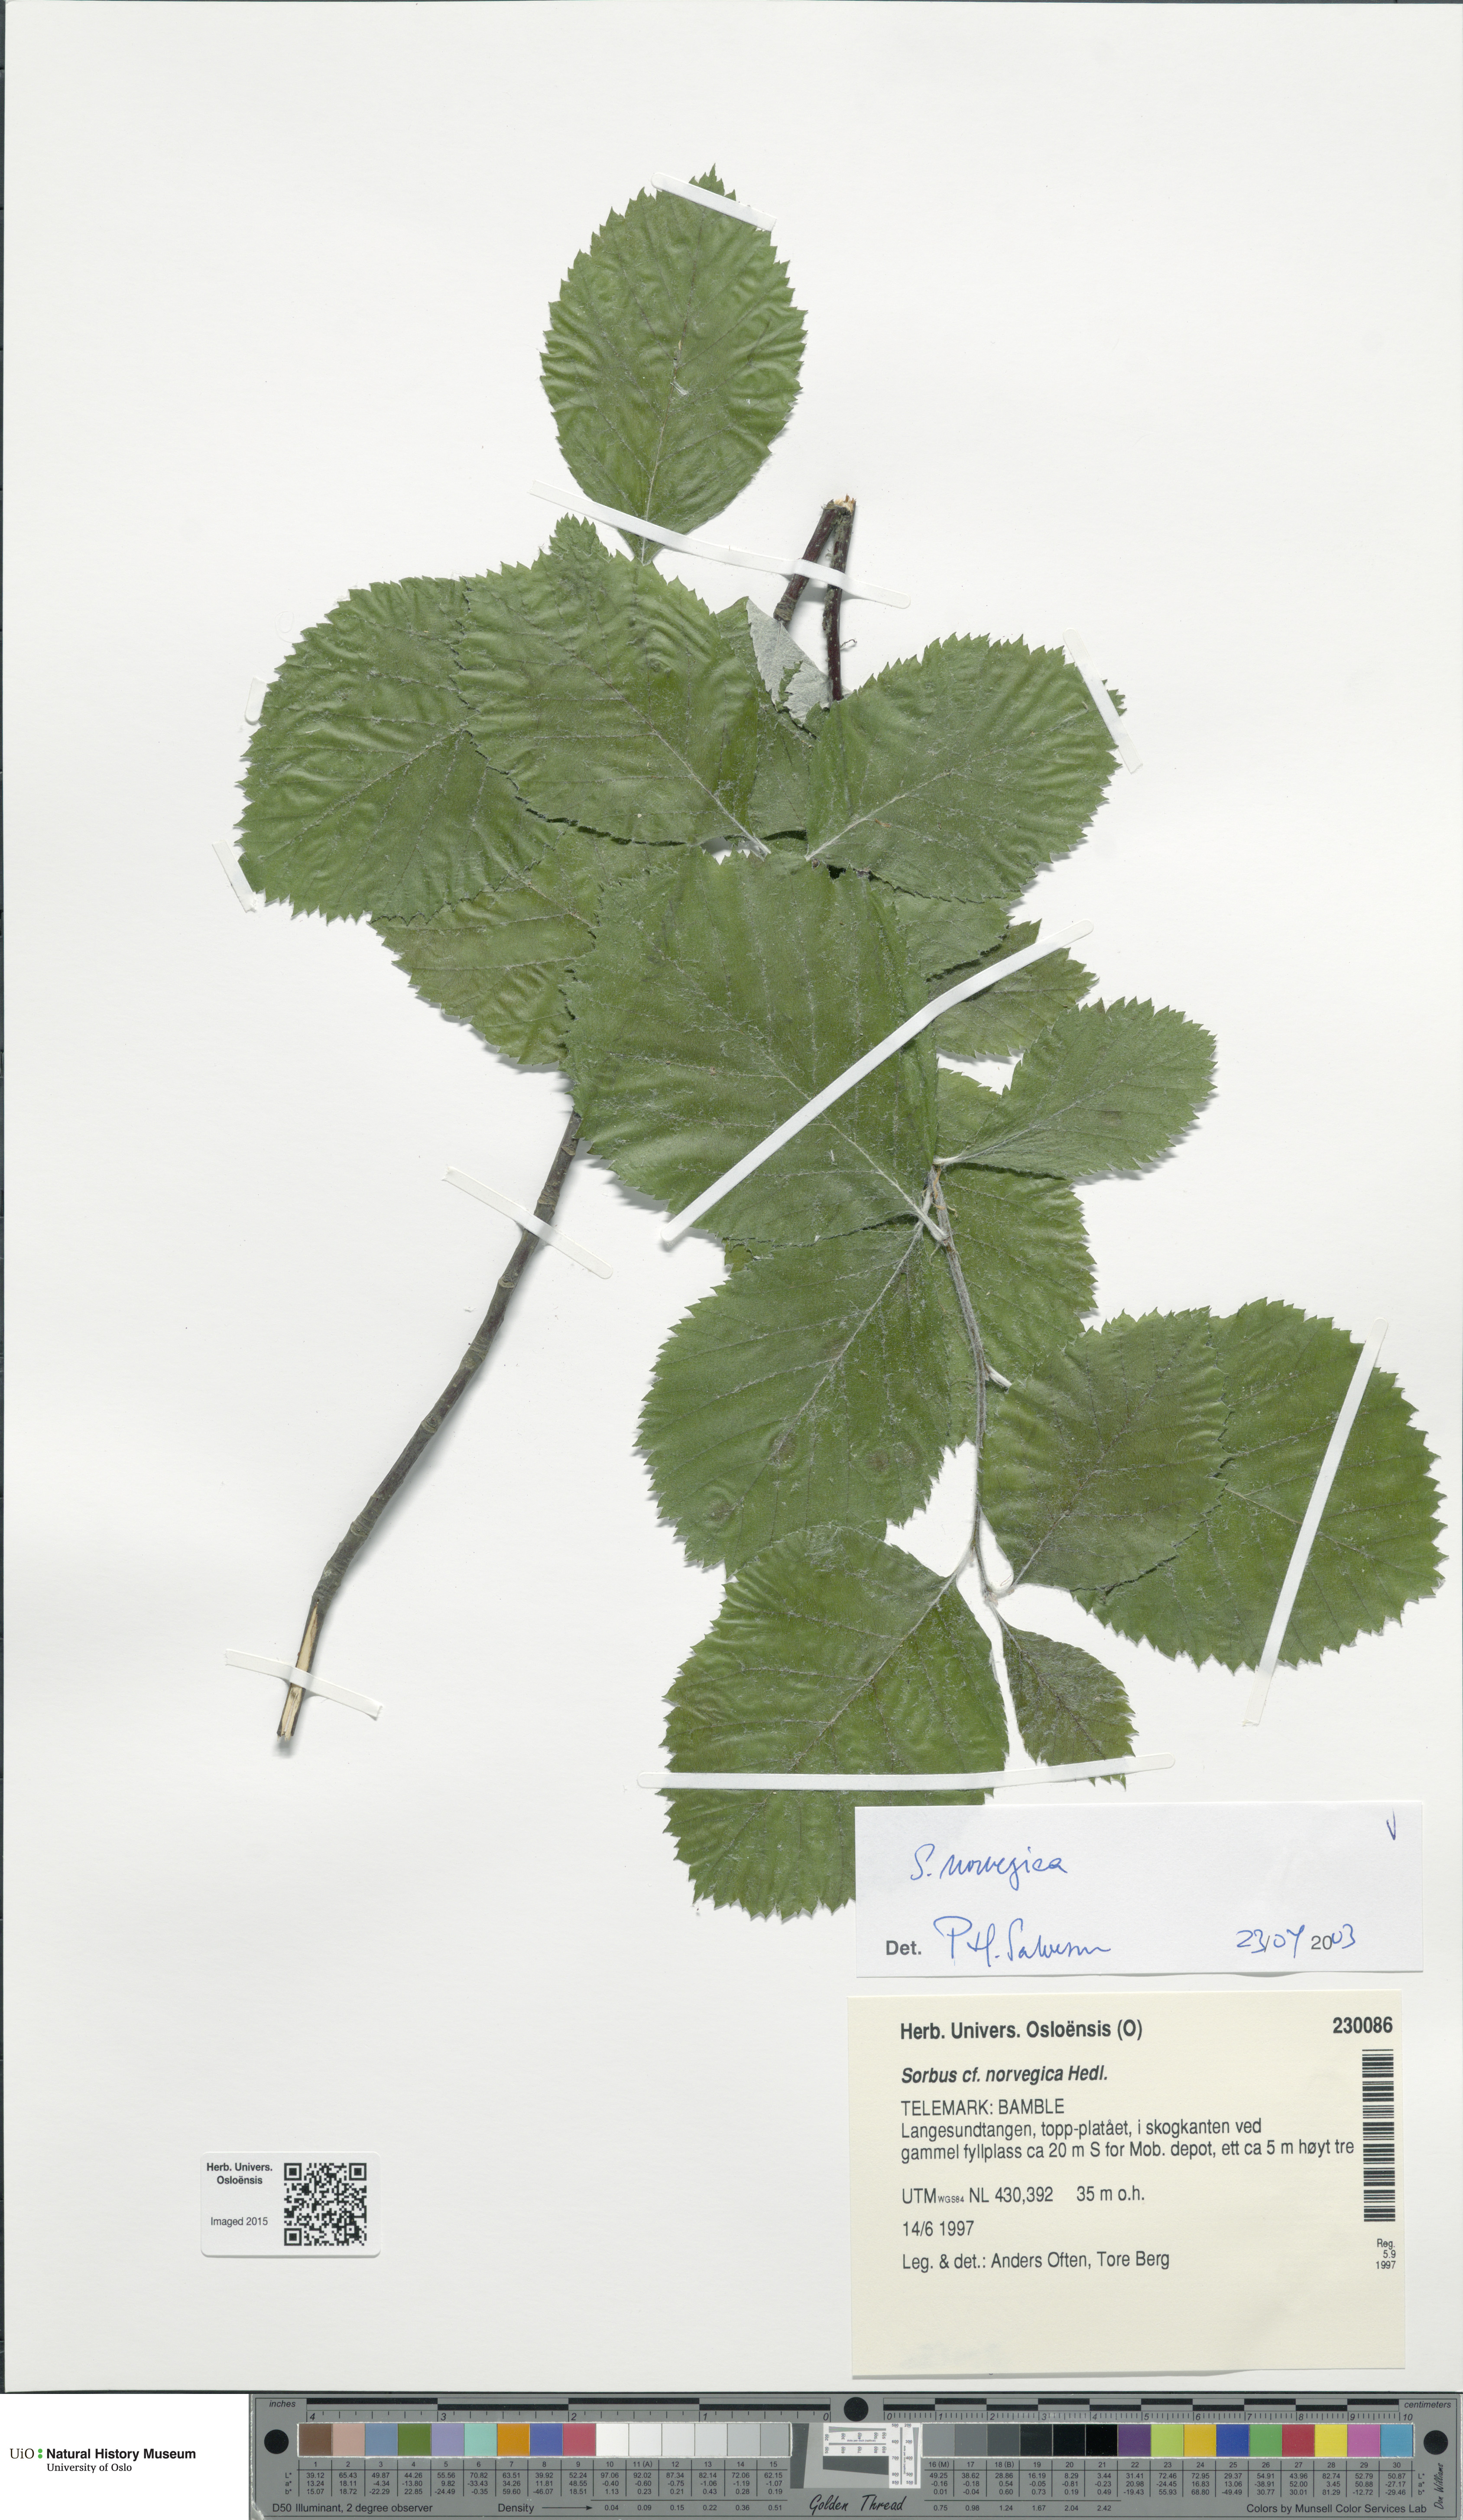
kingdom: Plantae
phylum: Tracheophyta
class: Magnoliopsida
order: Rosales
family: Rosaceae
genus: Aria
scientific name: Aria obtusifolia
